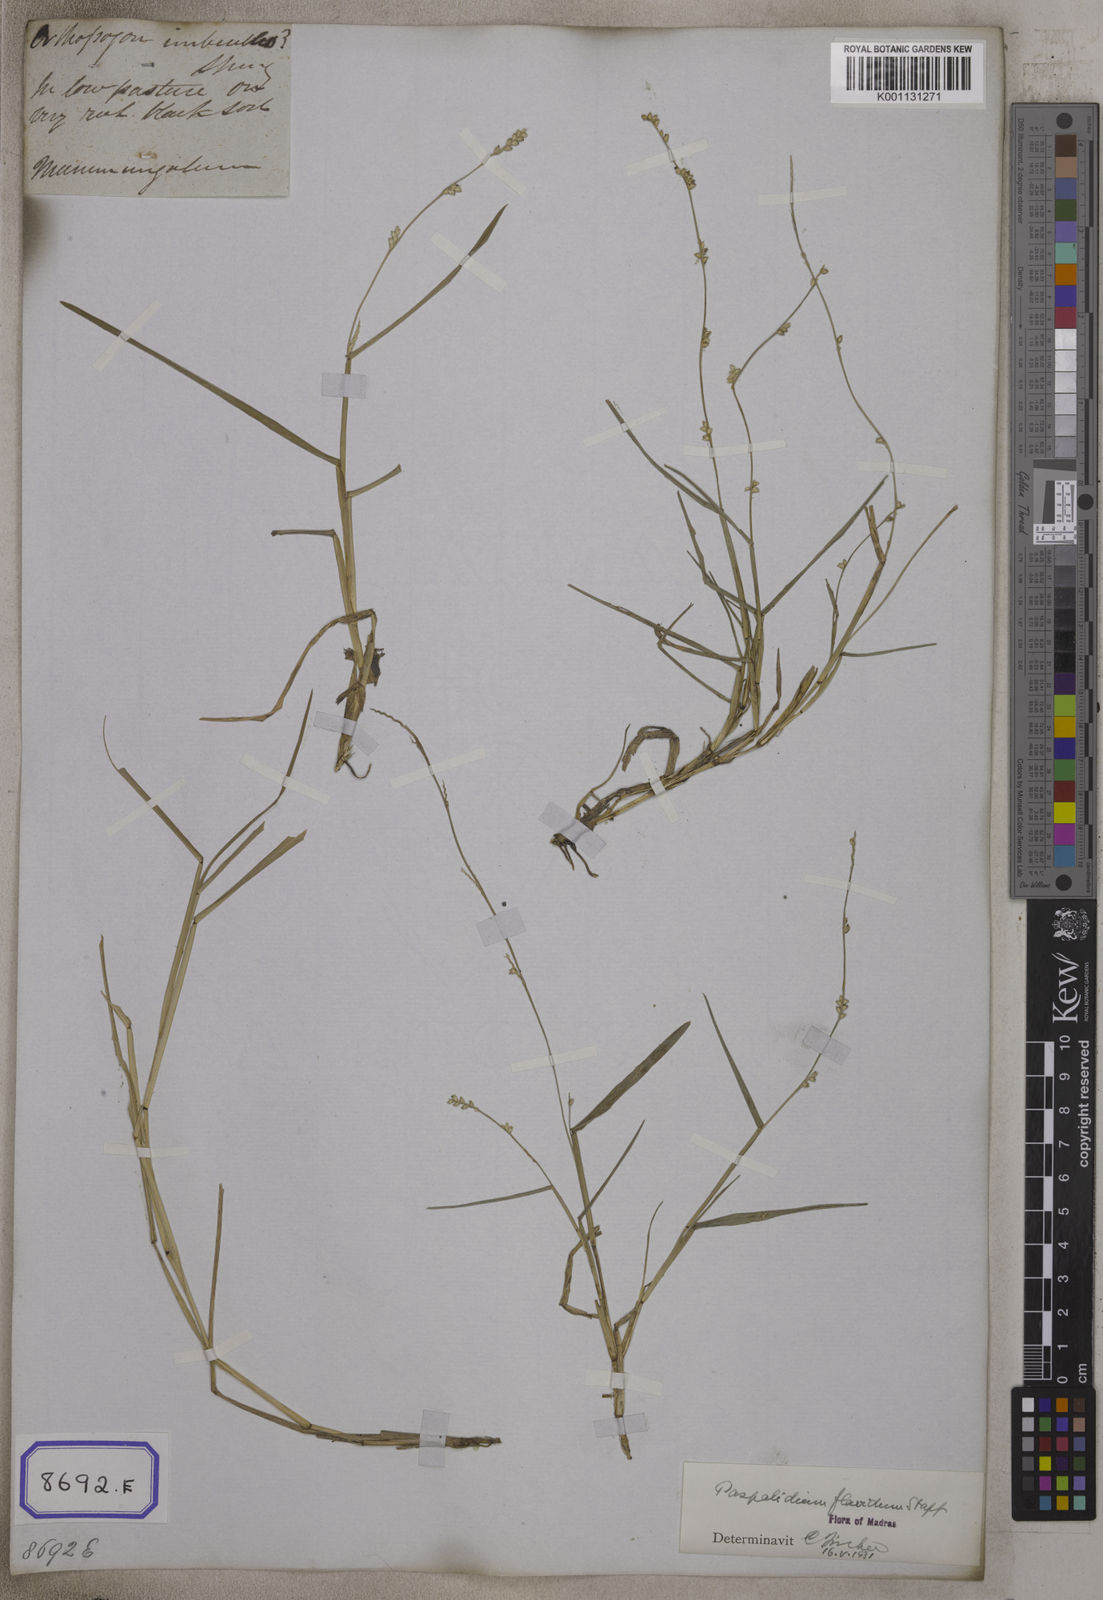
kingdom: Plantae
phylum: Tracheophyta
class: Liliopsida
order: Poales
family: Poaceae
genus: Setaria
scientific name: Setaria flavida
